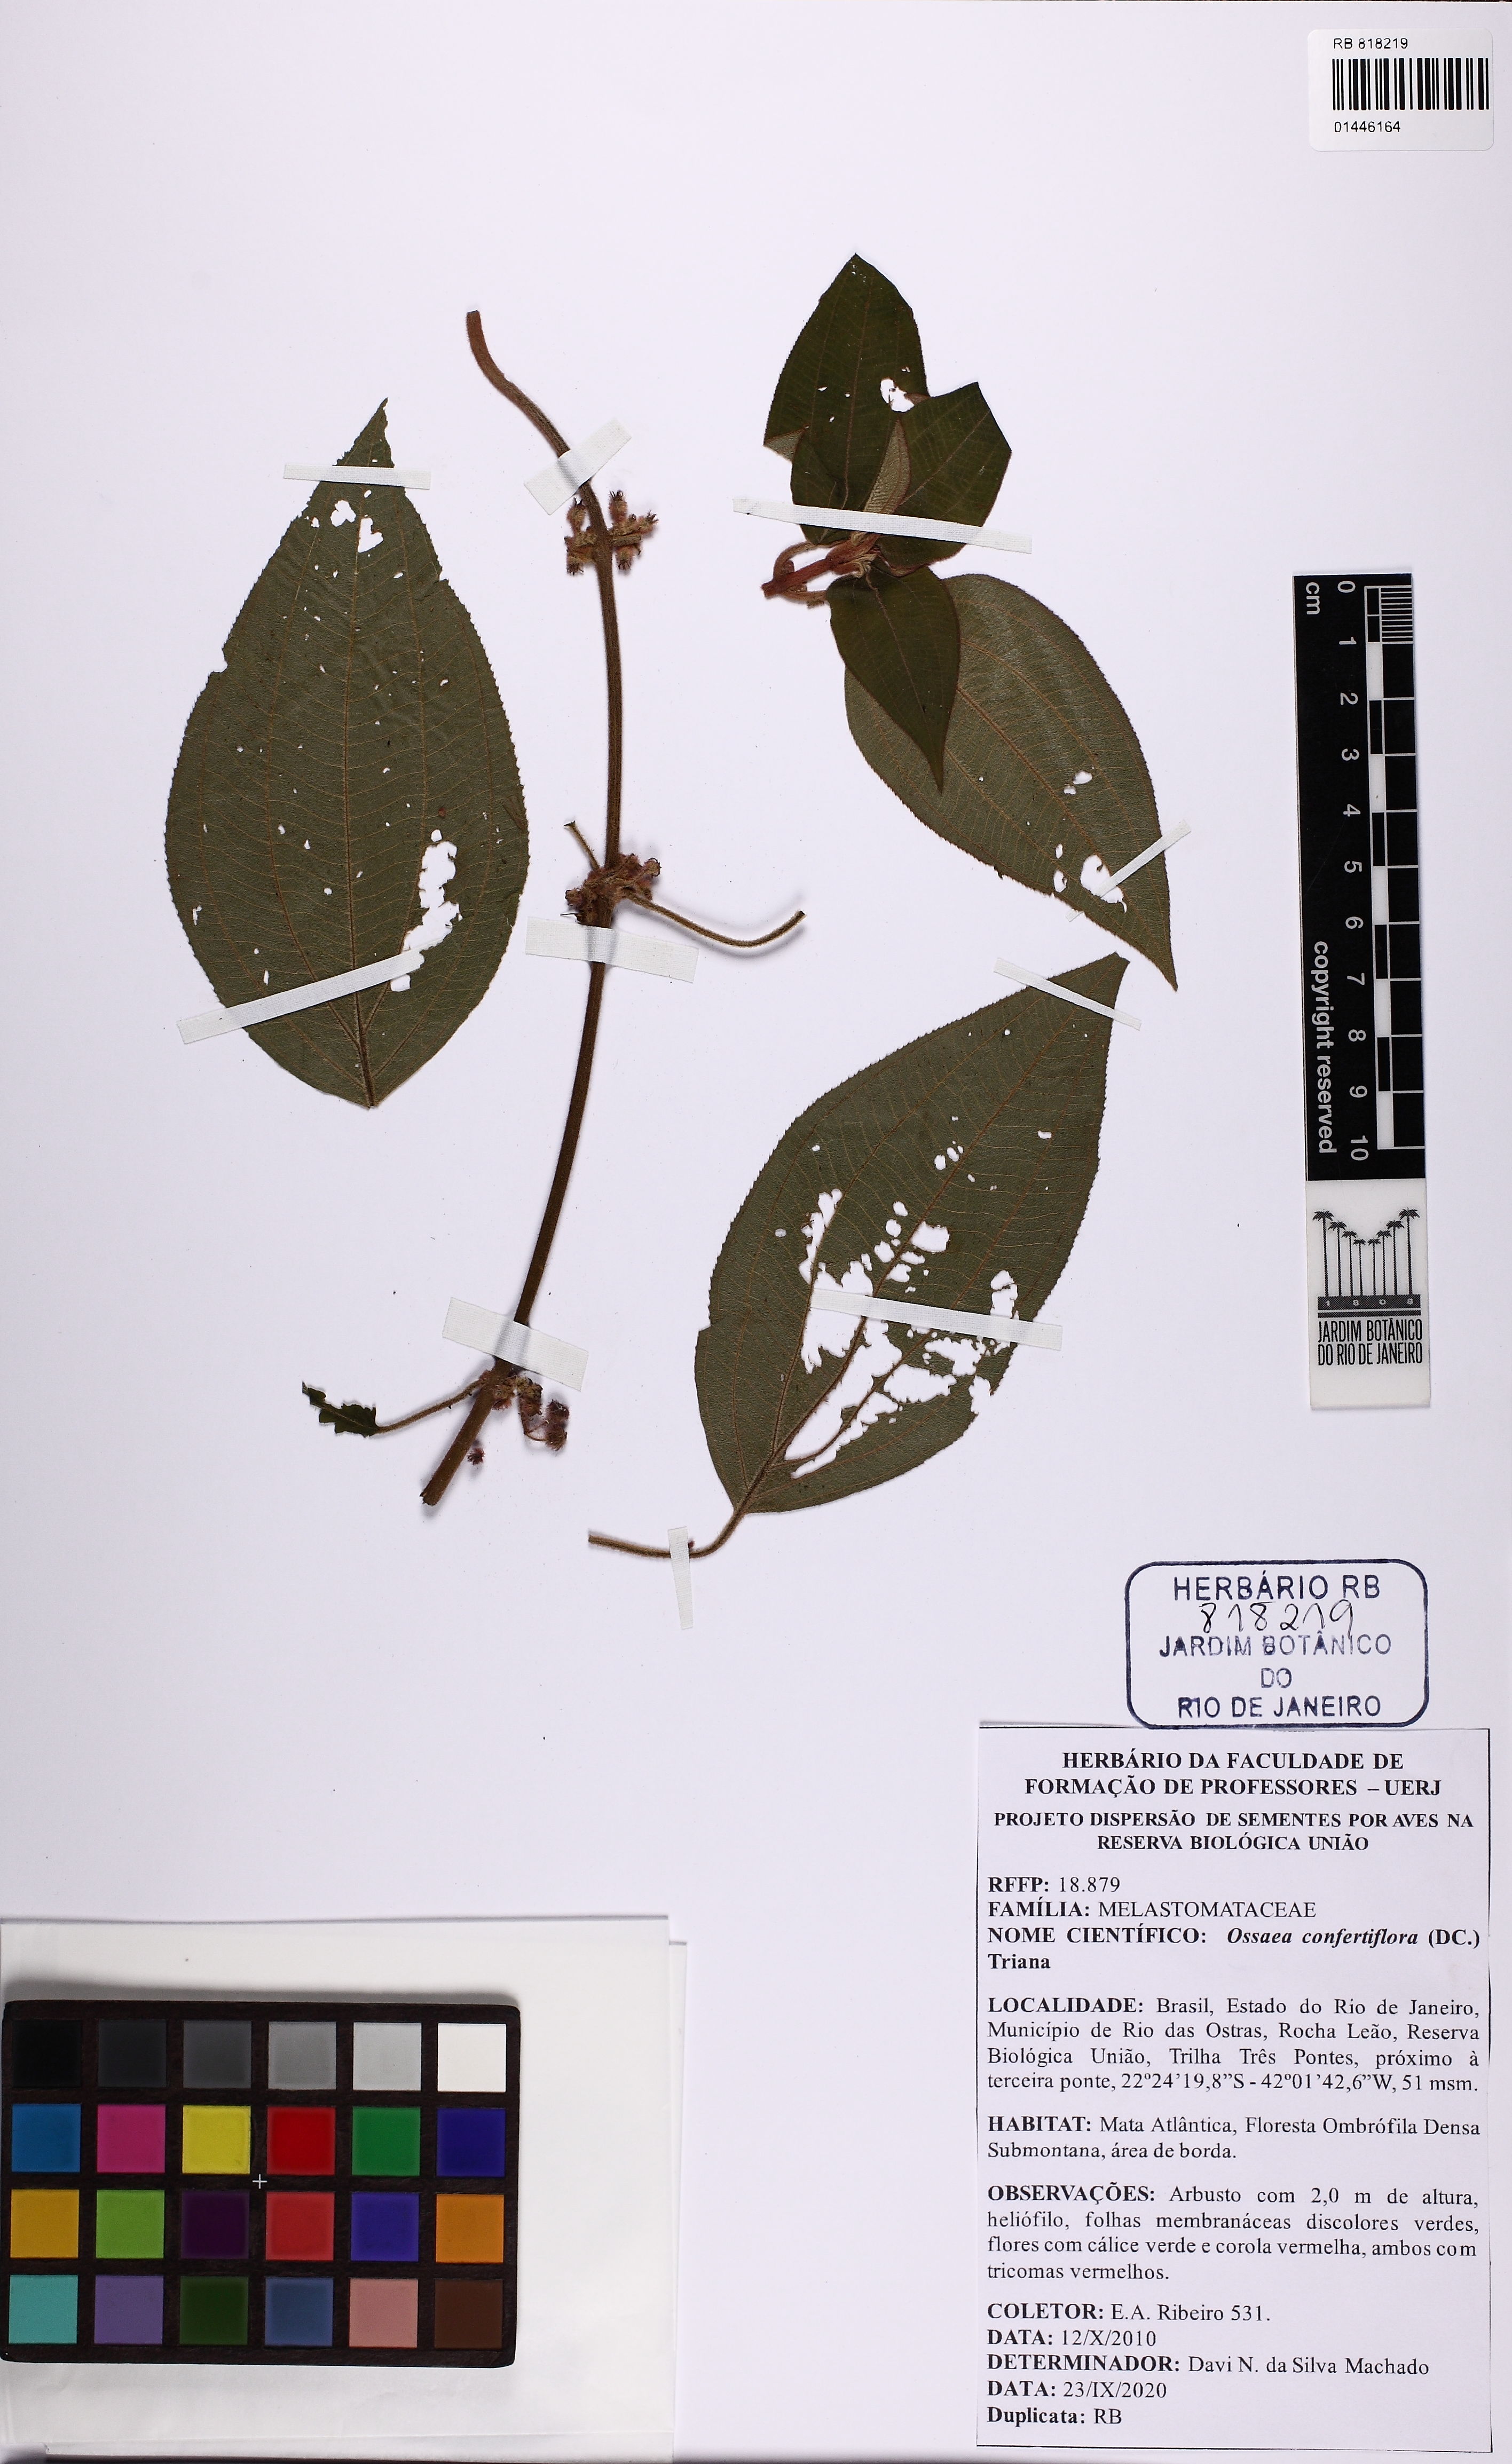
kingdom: Plantae
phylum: Tracheophyta
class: Magnoliopsida
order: Myrtales
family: Melastomataceae
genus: Miconia
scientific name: Miconia rubella
